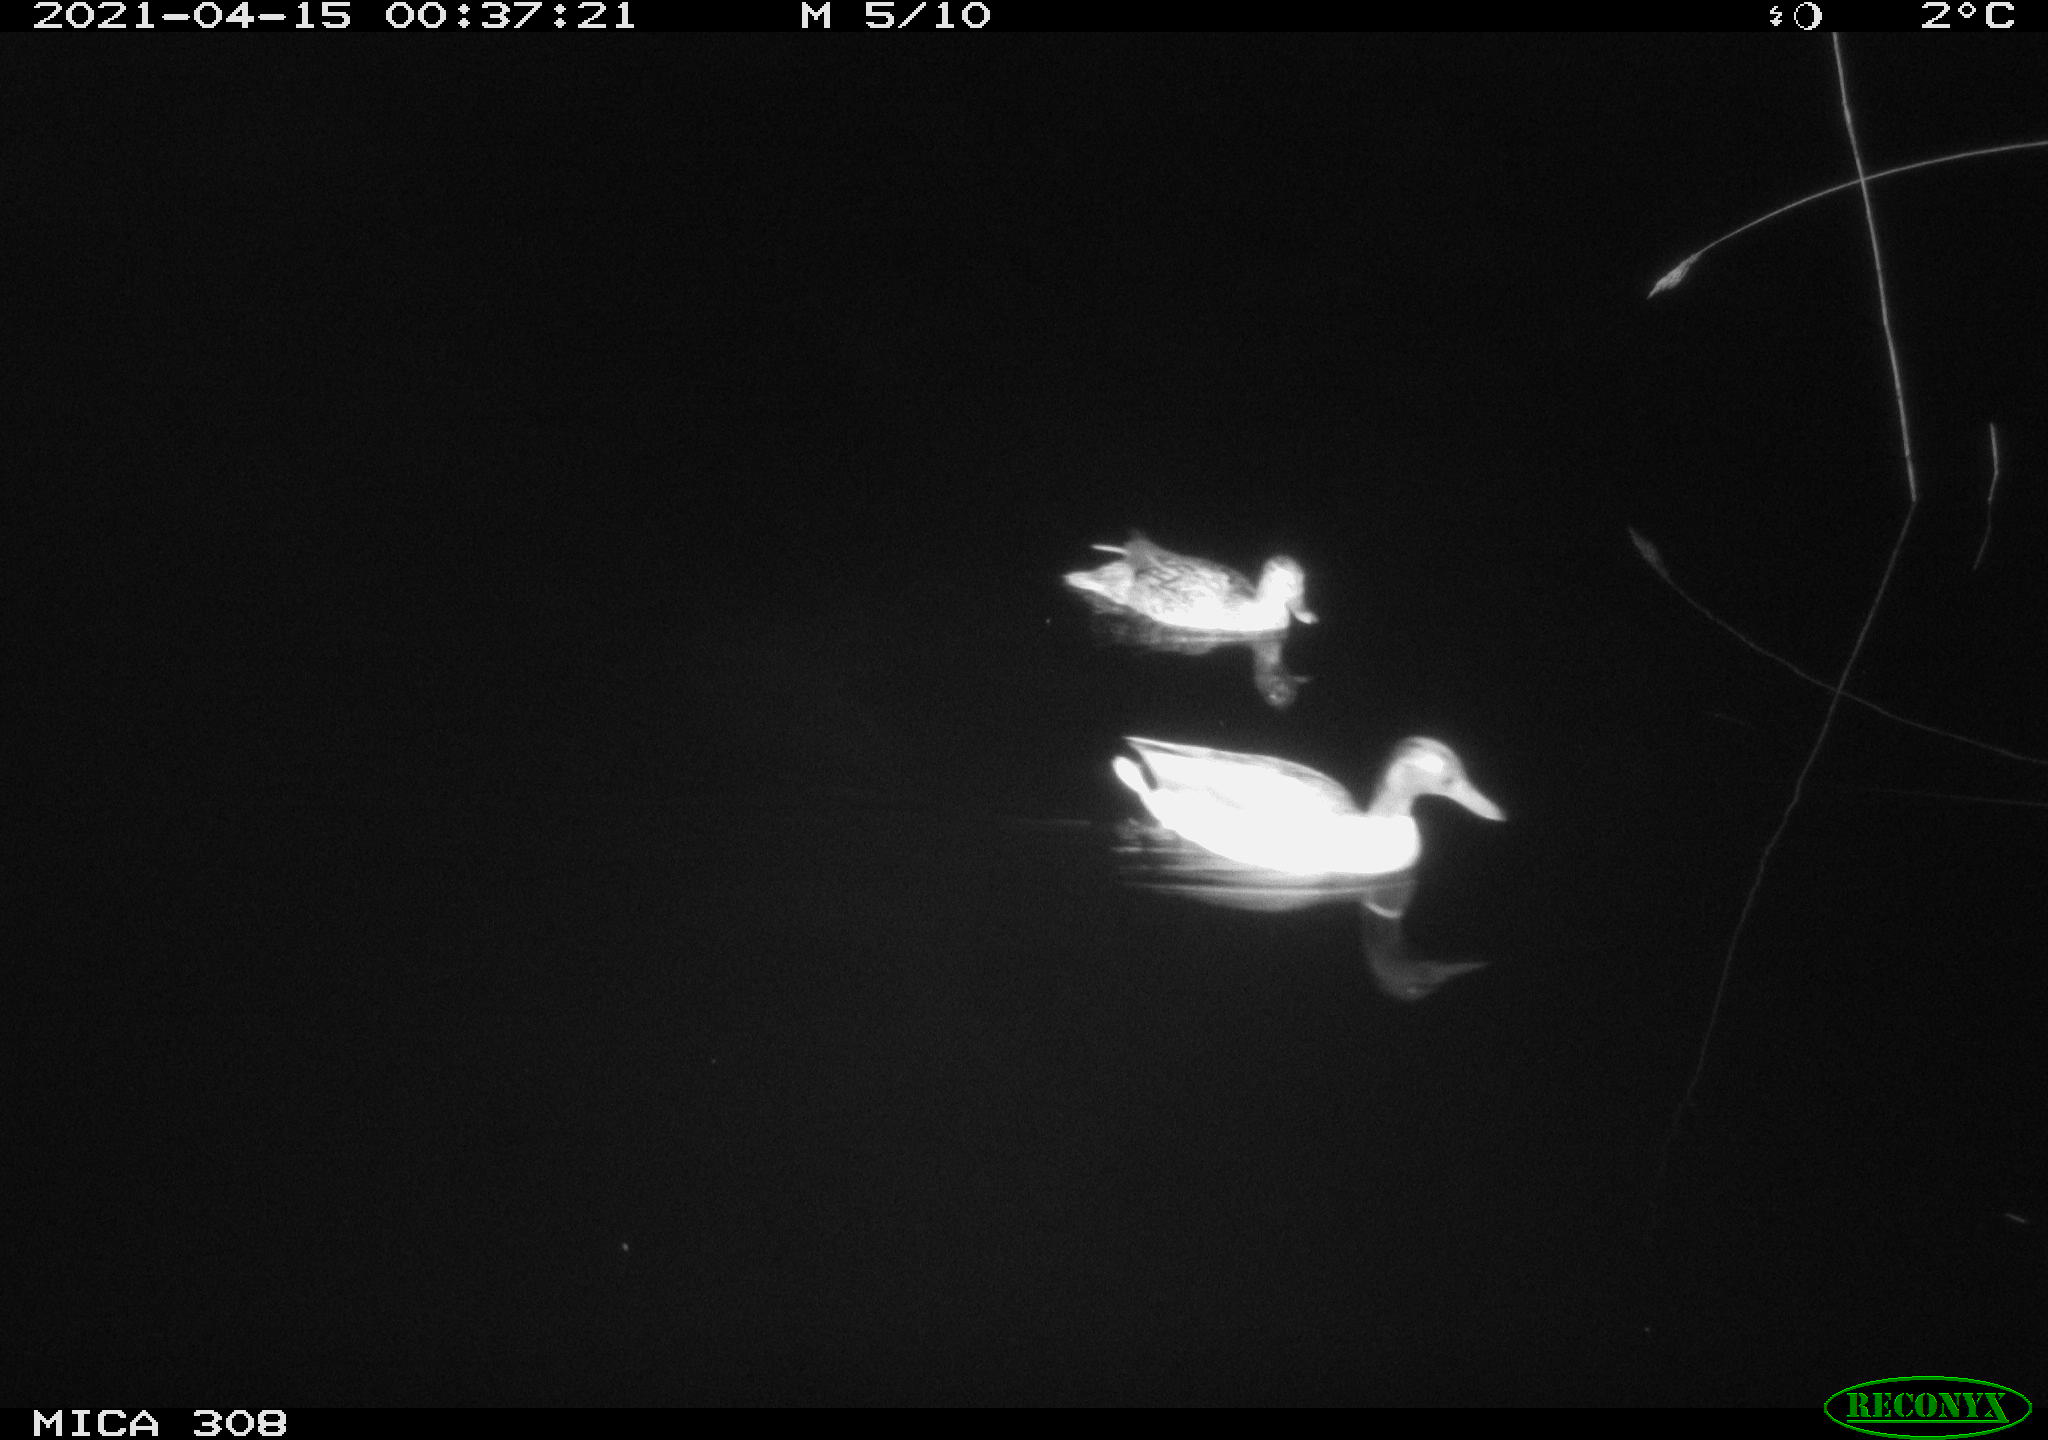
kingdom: Animalia
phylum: Chordata
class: Aves
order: Anseriformes
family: Anatidae
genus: Anas
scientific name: Anas platyrhynchos
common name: Mallard
